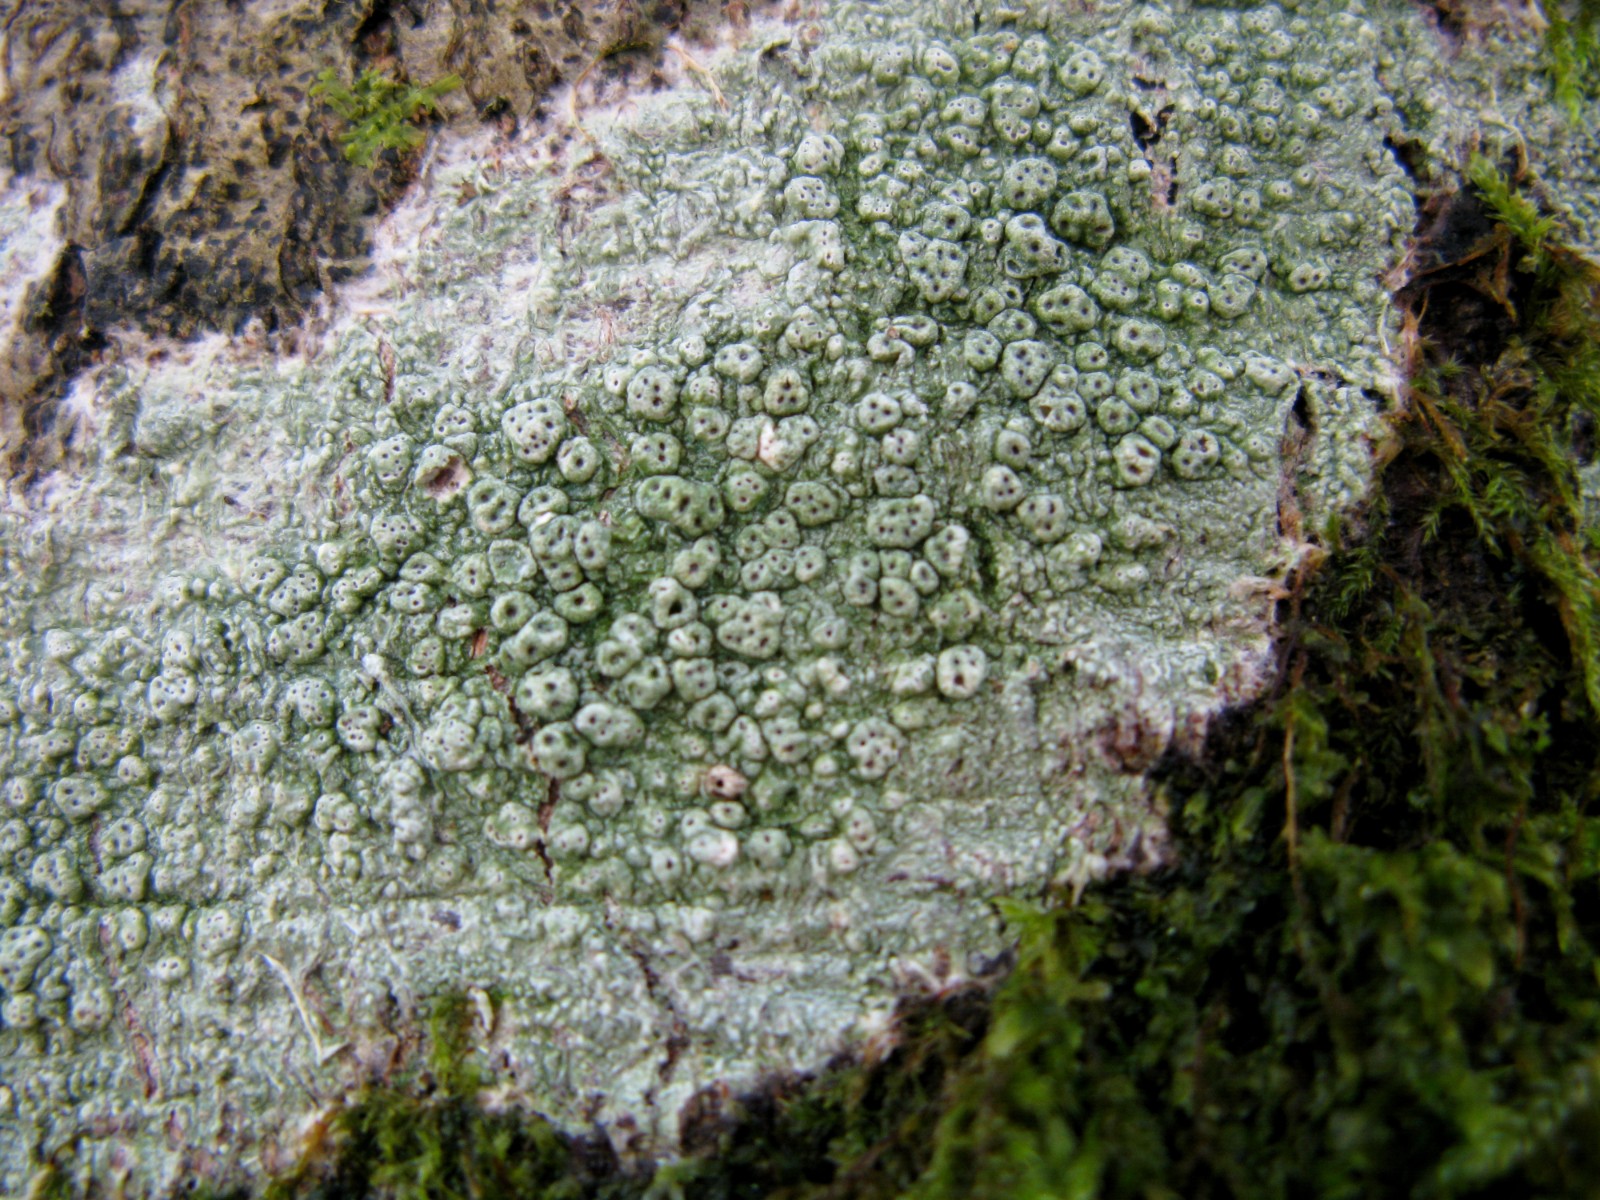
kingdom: Fungi
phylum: Ascomycota
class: Lecanoromycetes
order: Pertusariales
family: Pertusariaceae
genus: Pertusaria
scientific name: Pertusaria pertusa
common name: almindelig prikvortelav
